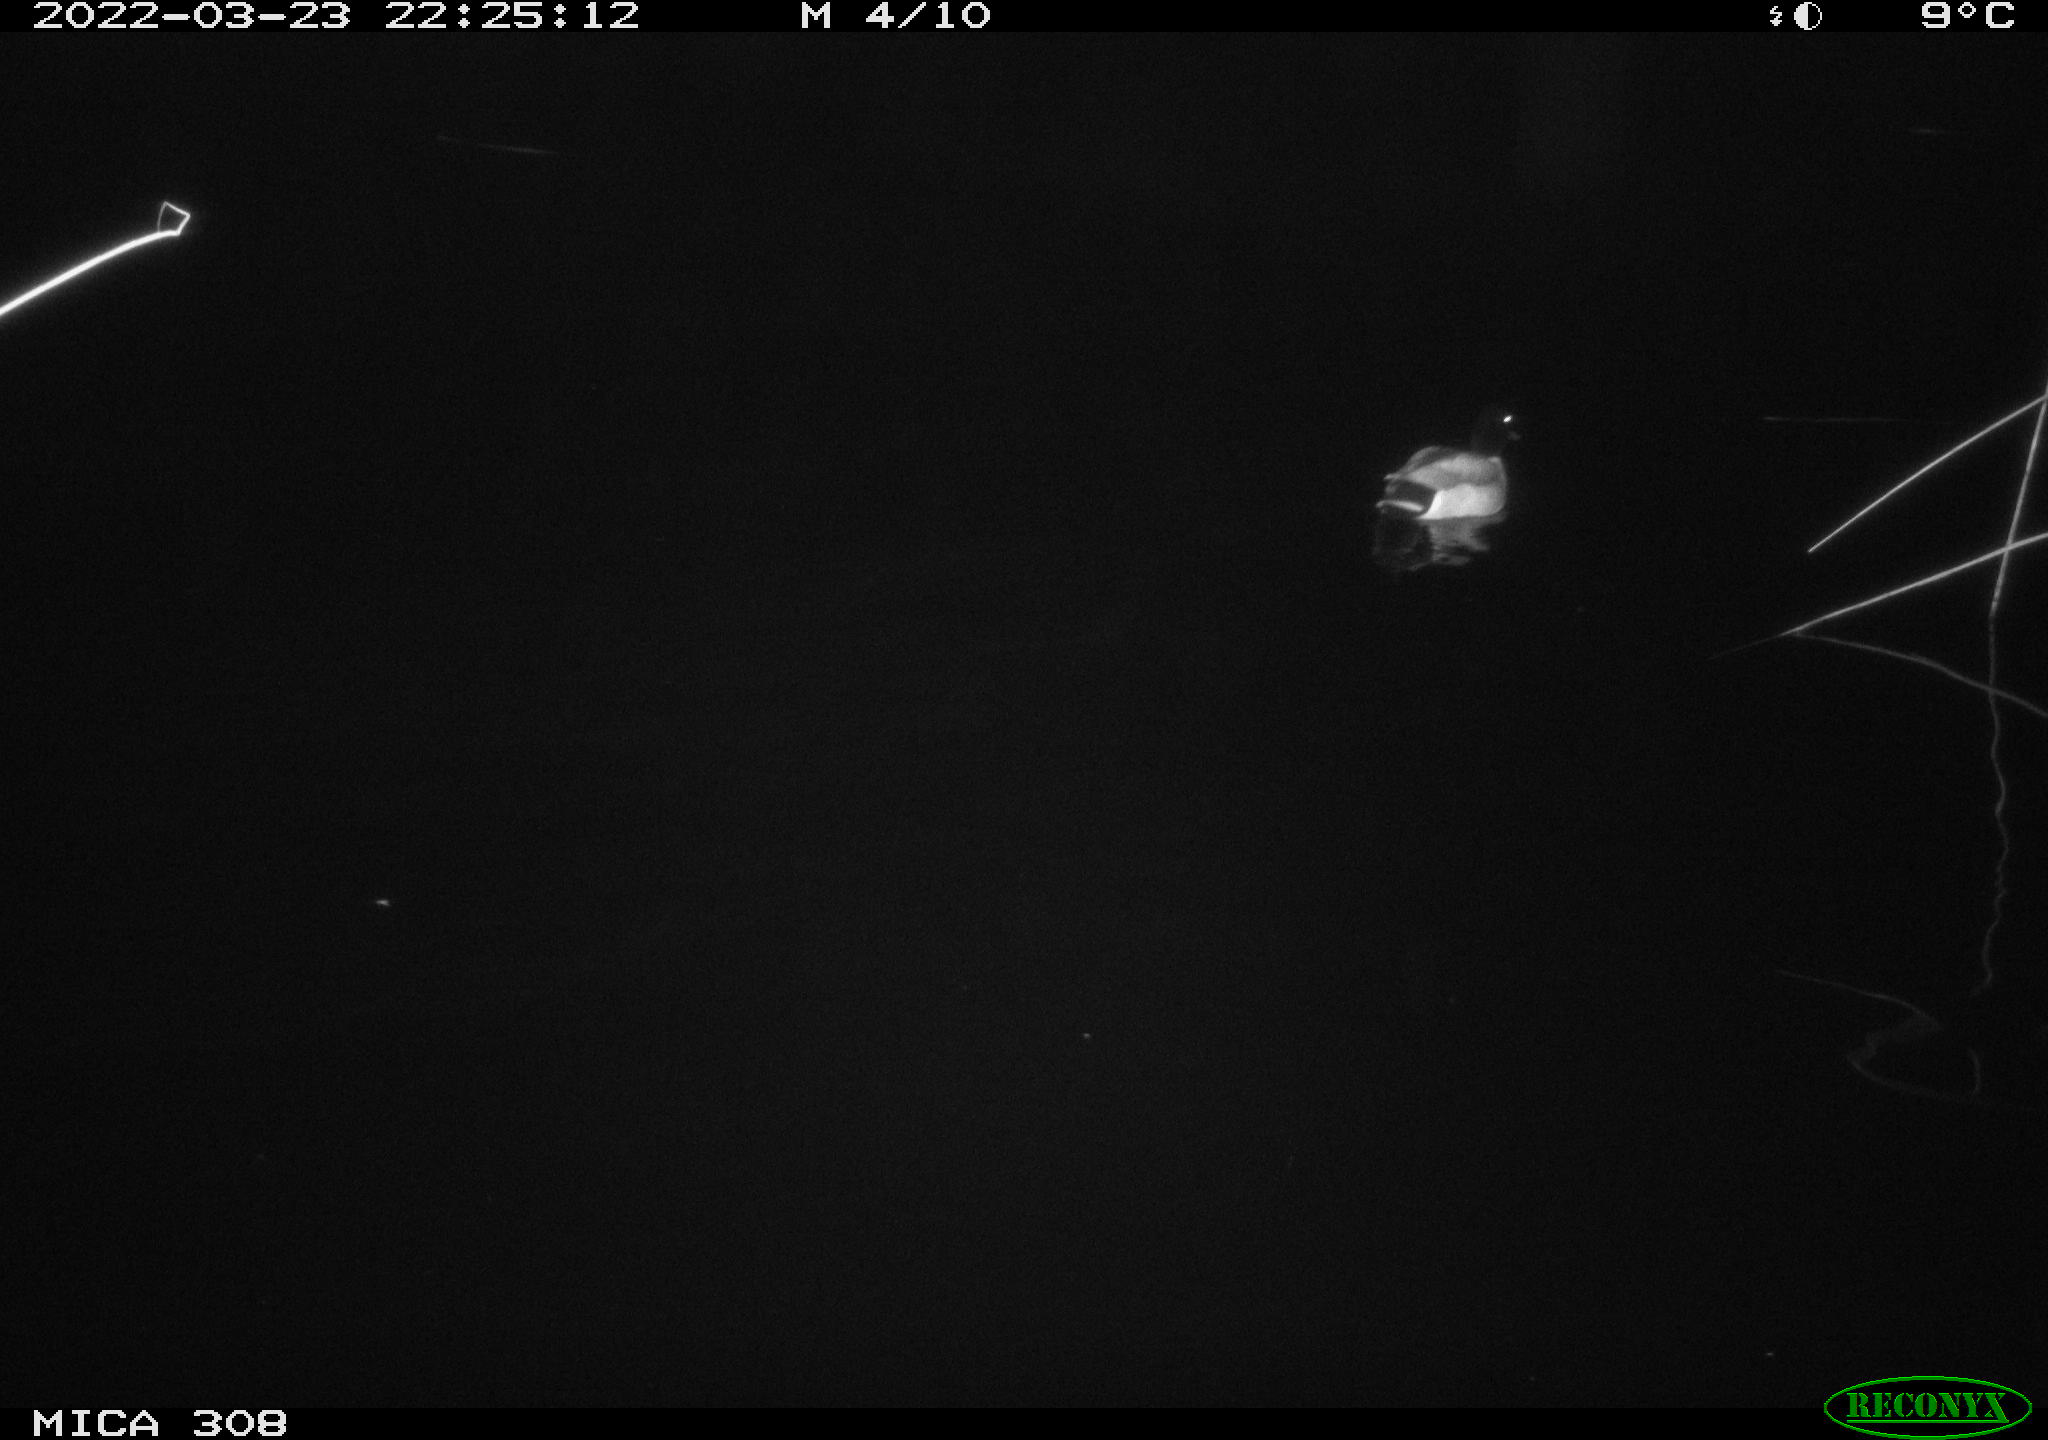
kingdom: Animalia
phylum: Chordata
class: Aves
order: Anseriformes
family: Anatidae
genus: Anas
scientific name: Anas platyrhynchos
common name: Mallard
